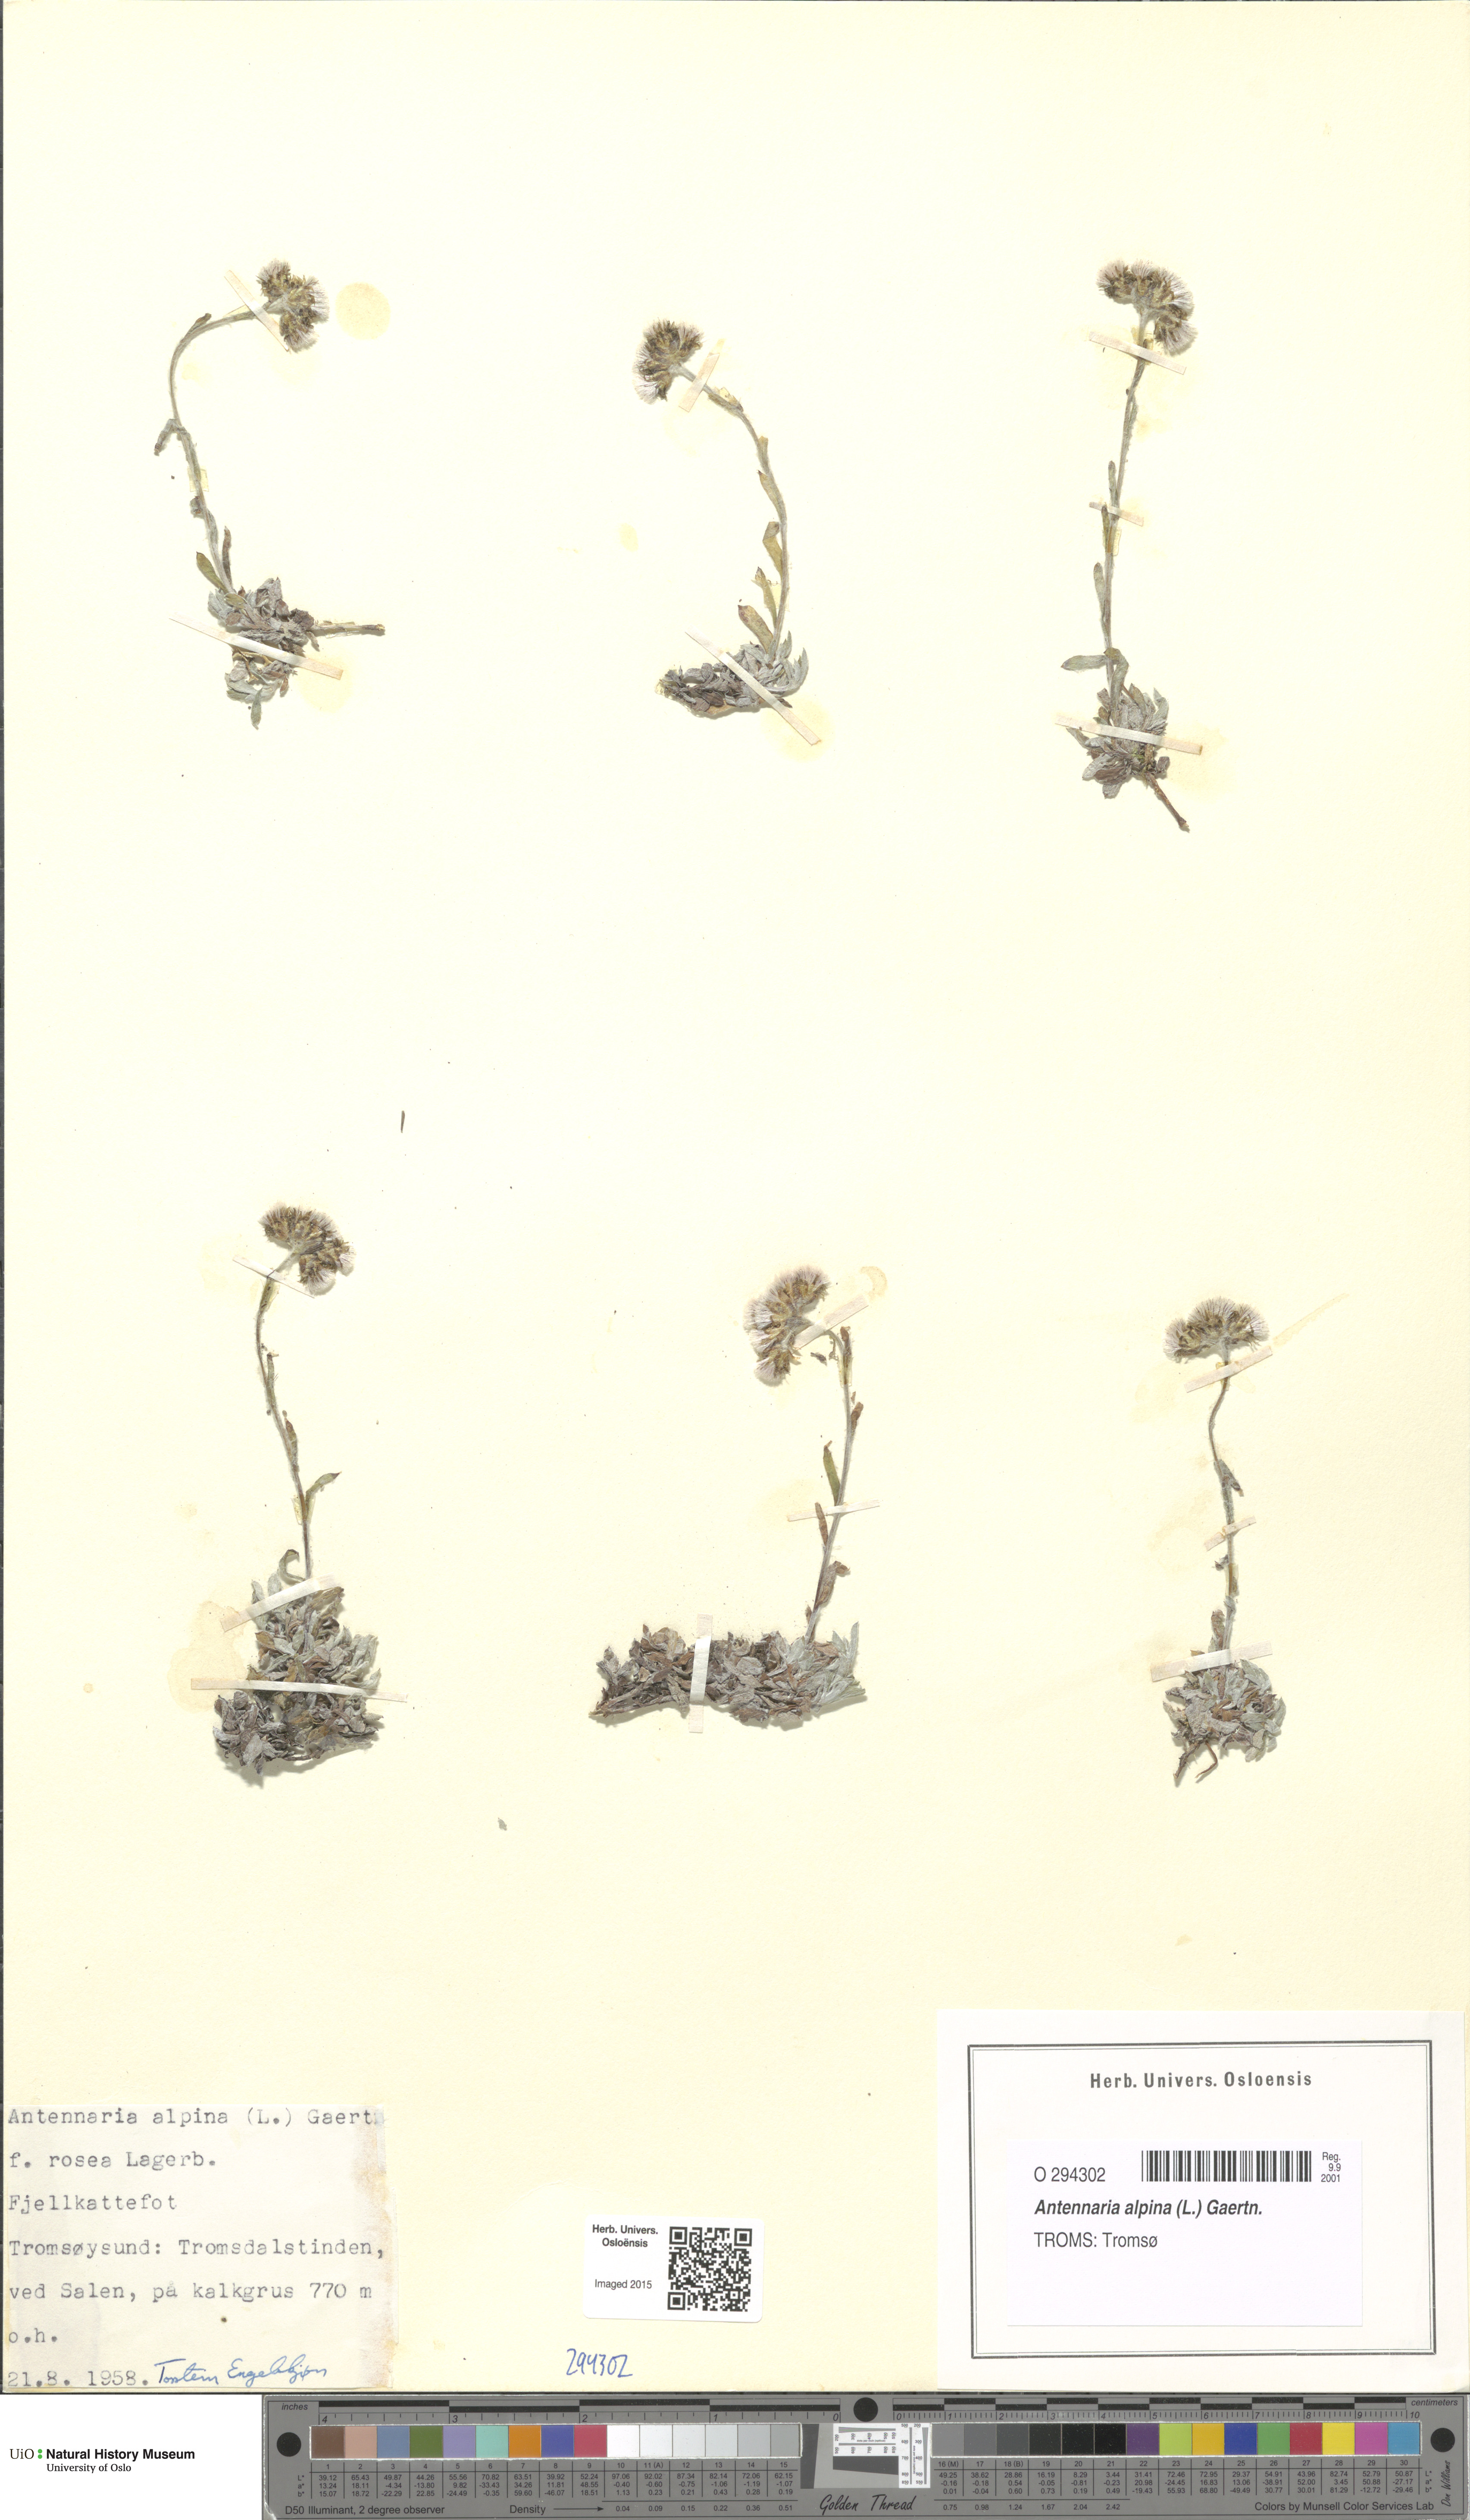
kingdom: Plantae
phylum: Tracheophyta
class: Magnoliopsida
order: Asterales
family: Asteraceae
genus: Antennaria
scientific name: Antennaria alpina
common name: Alpine pussytoes
